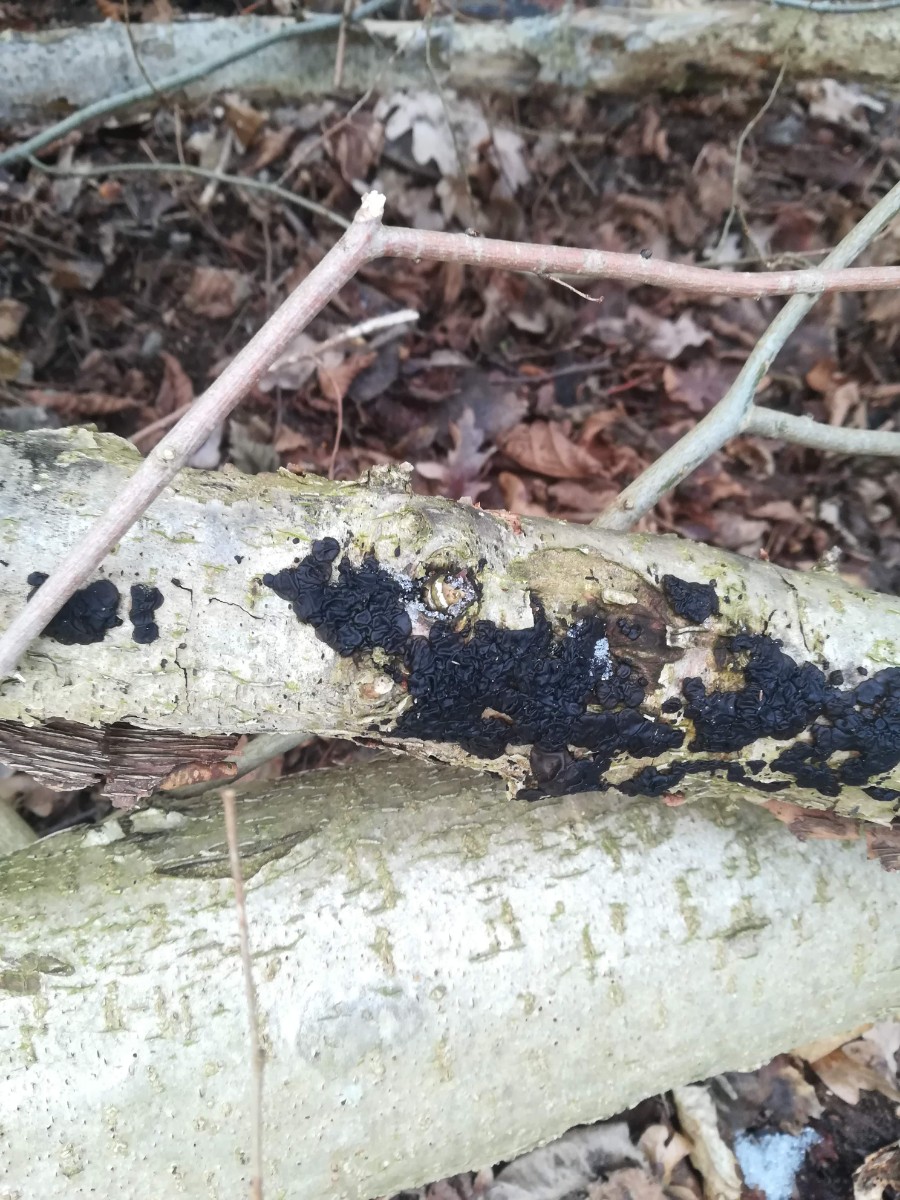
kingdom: Fungi
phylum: Basidiomycota
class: Agaricomycetes
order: Auriculariales
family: Auriculariaceae
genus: Exidia
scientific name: Exidia nigricans
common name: almindelig bævretop
